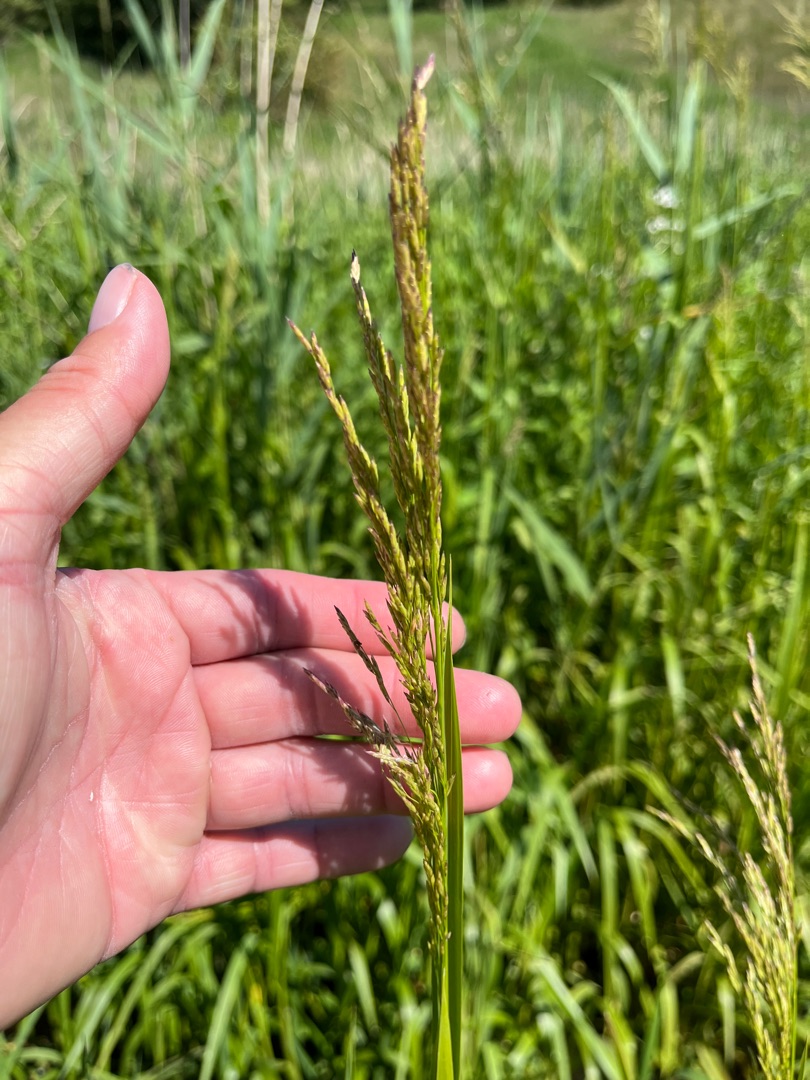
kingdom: Plantae
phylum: Tracheophyta
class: Liliopsida
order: Poales
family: Poaceae
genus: Glyceria
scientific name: Glyceria maxima
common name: Høj sødgræs
